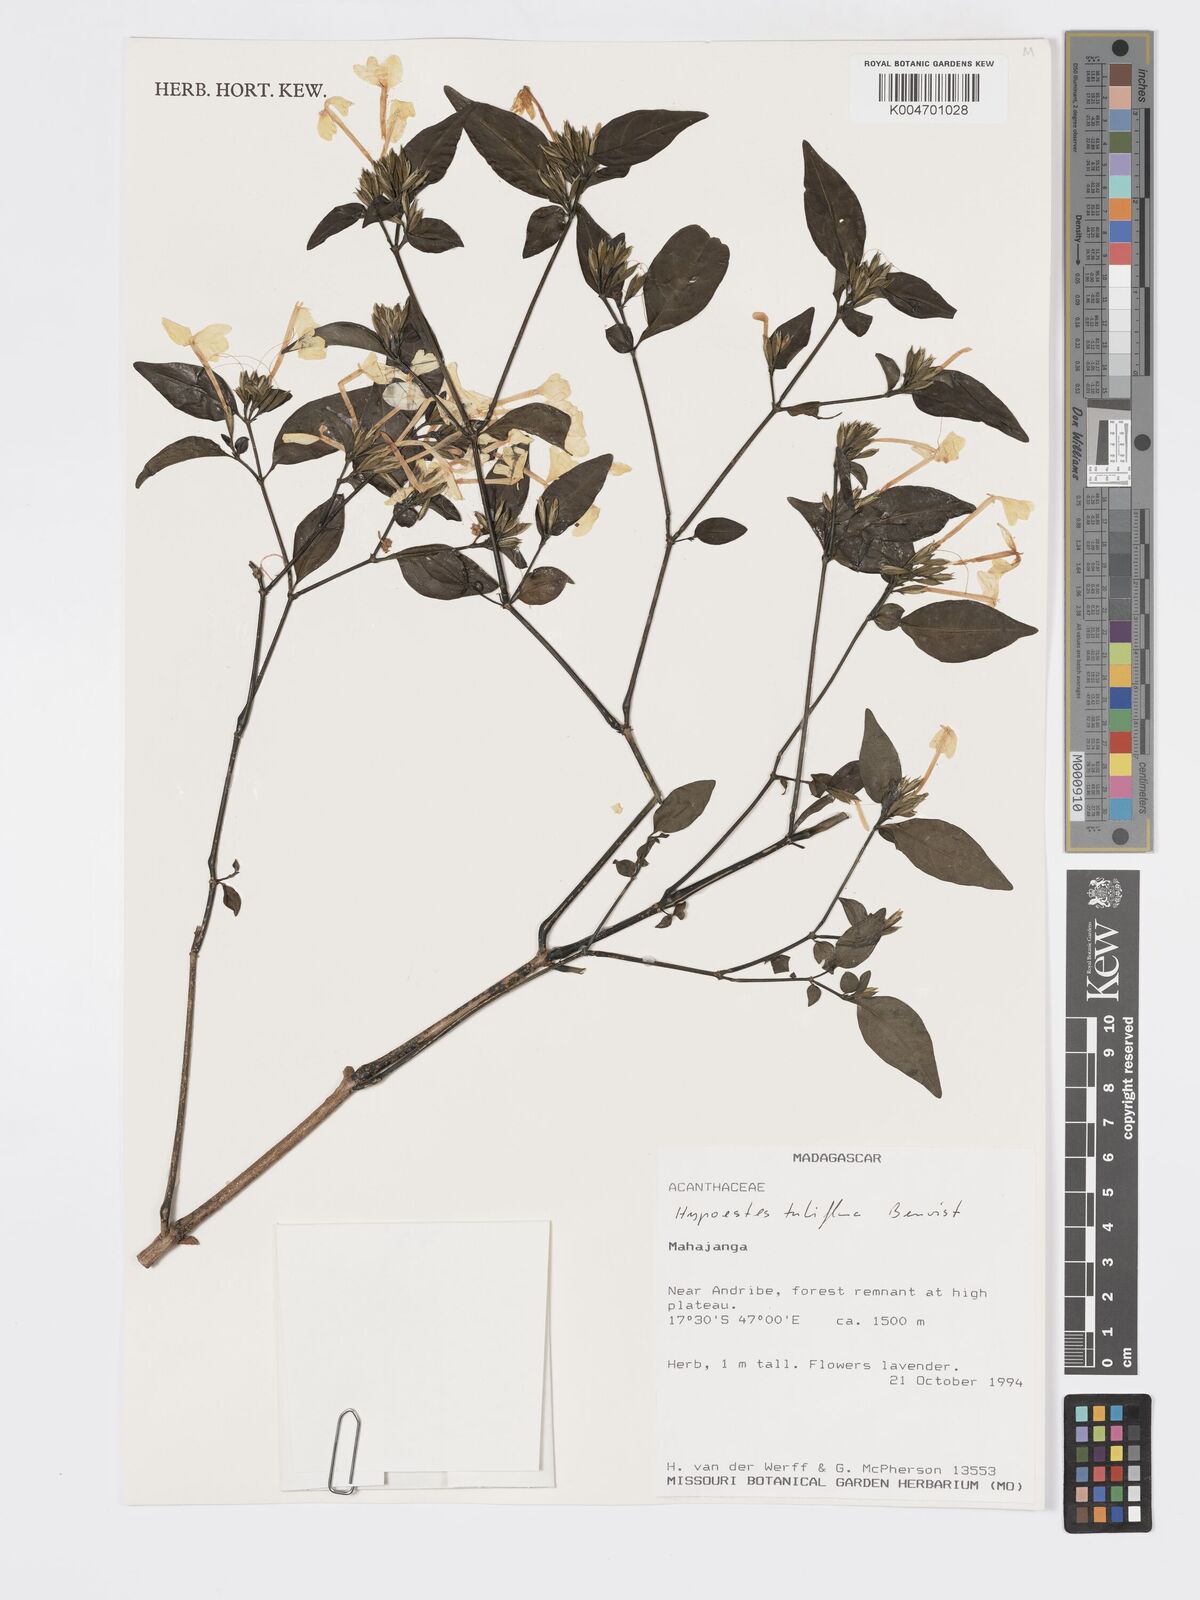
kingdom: Plantae
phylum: Tracheophyta
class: Magnoliopsida
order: Lamiales
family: Acanthaceae
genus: Hypoestes
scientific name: Hypoestes
